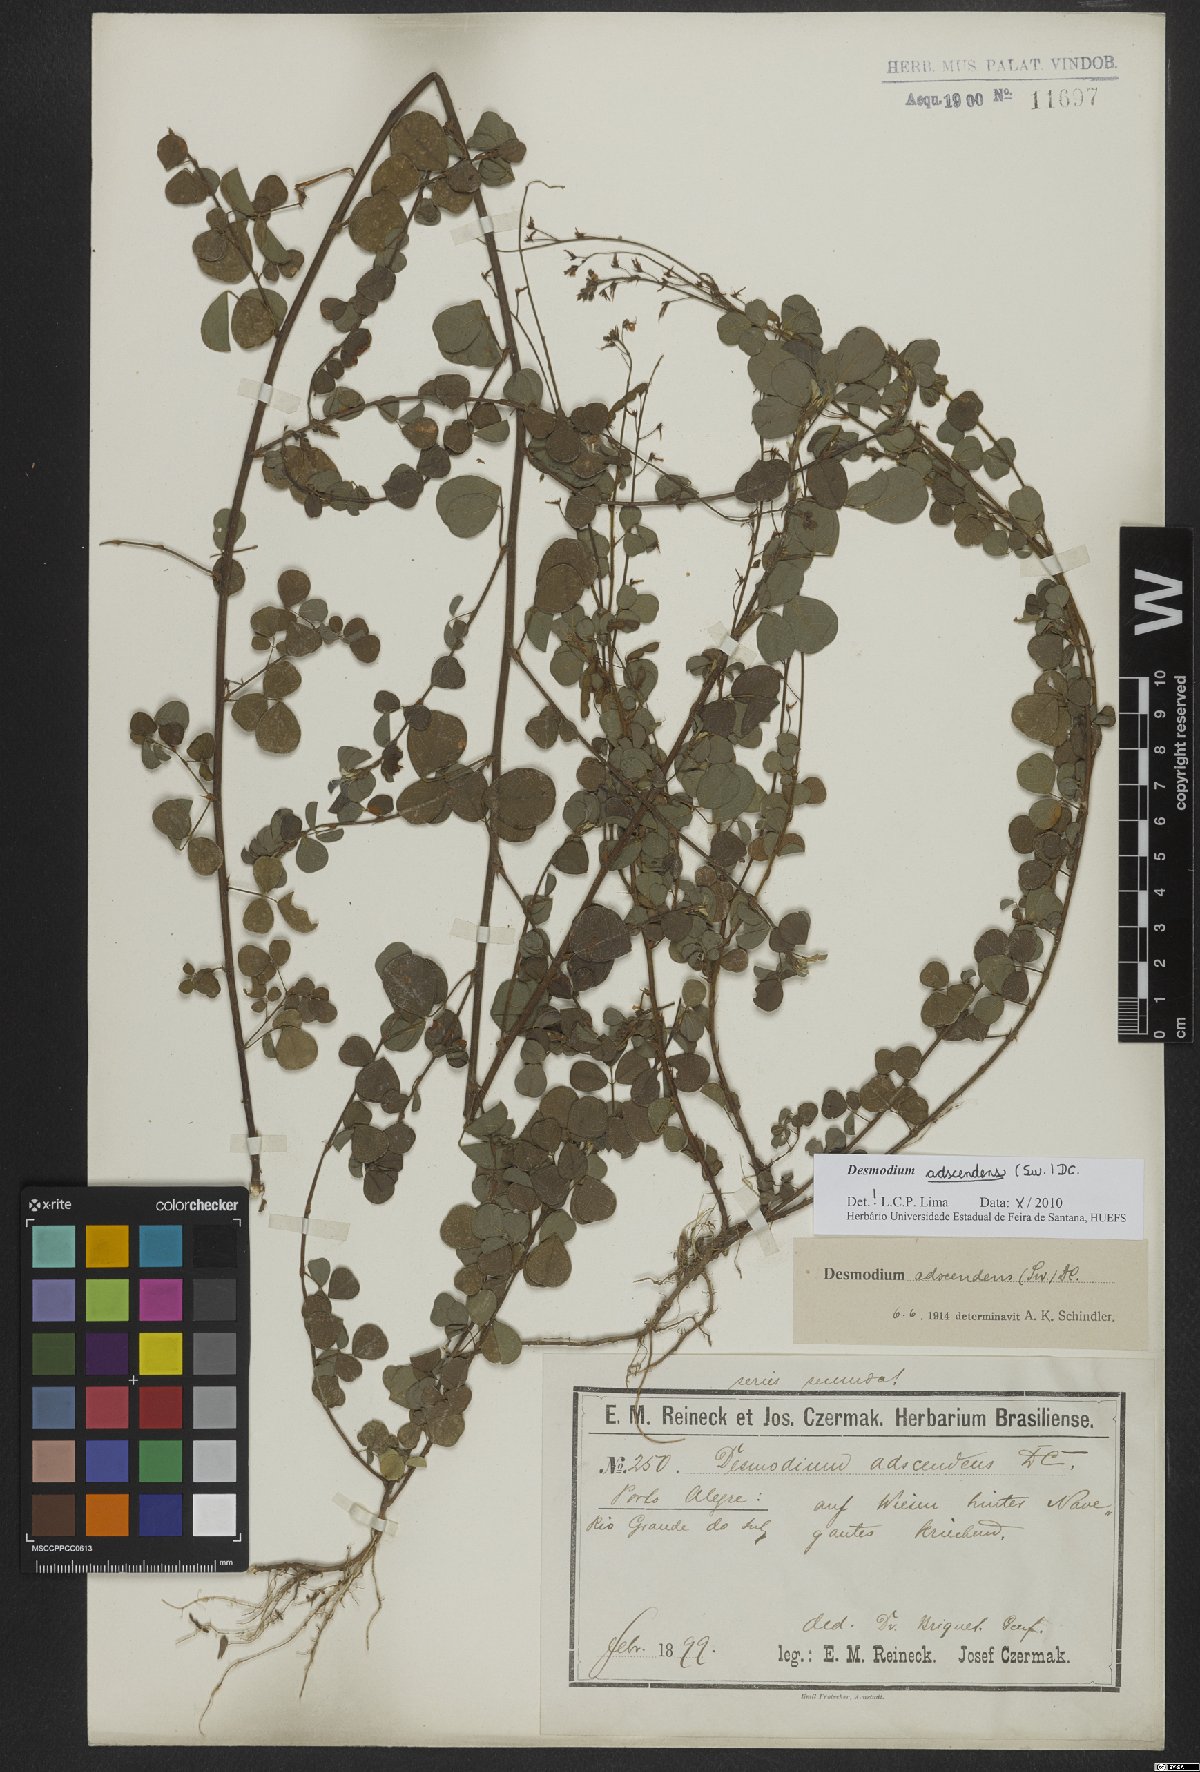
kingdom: Plantae
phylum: Tracheophyta
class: Magnoliopsida
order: Fabales
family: Fabaceae
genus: Grona
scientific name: Grona adscendens
